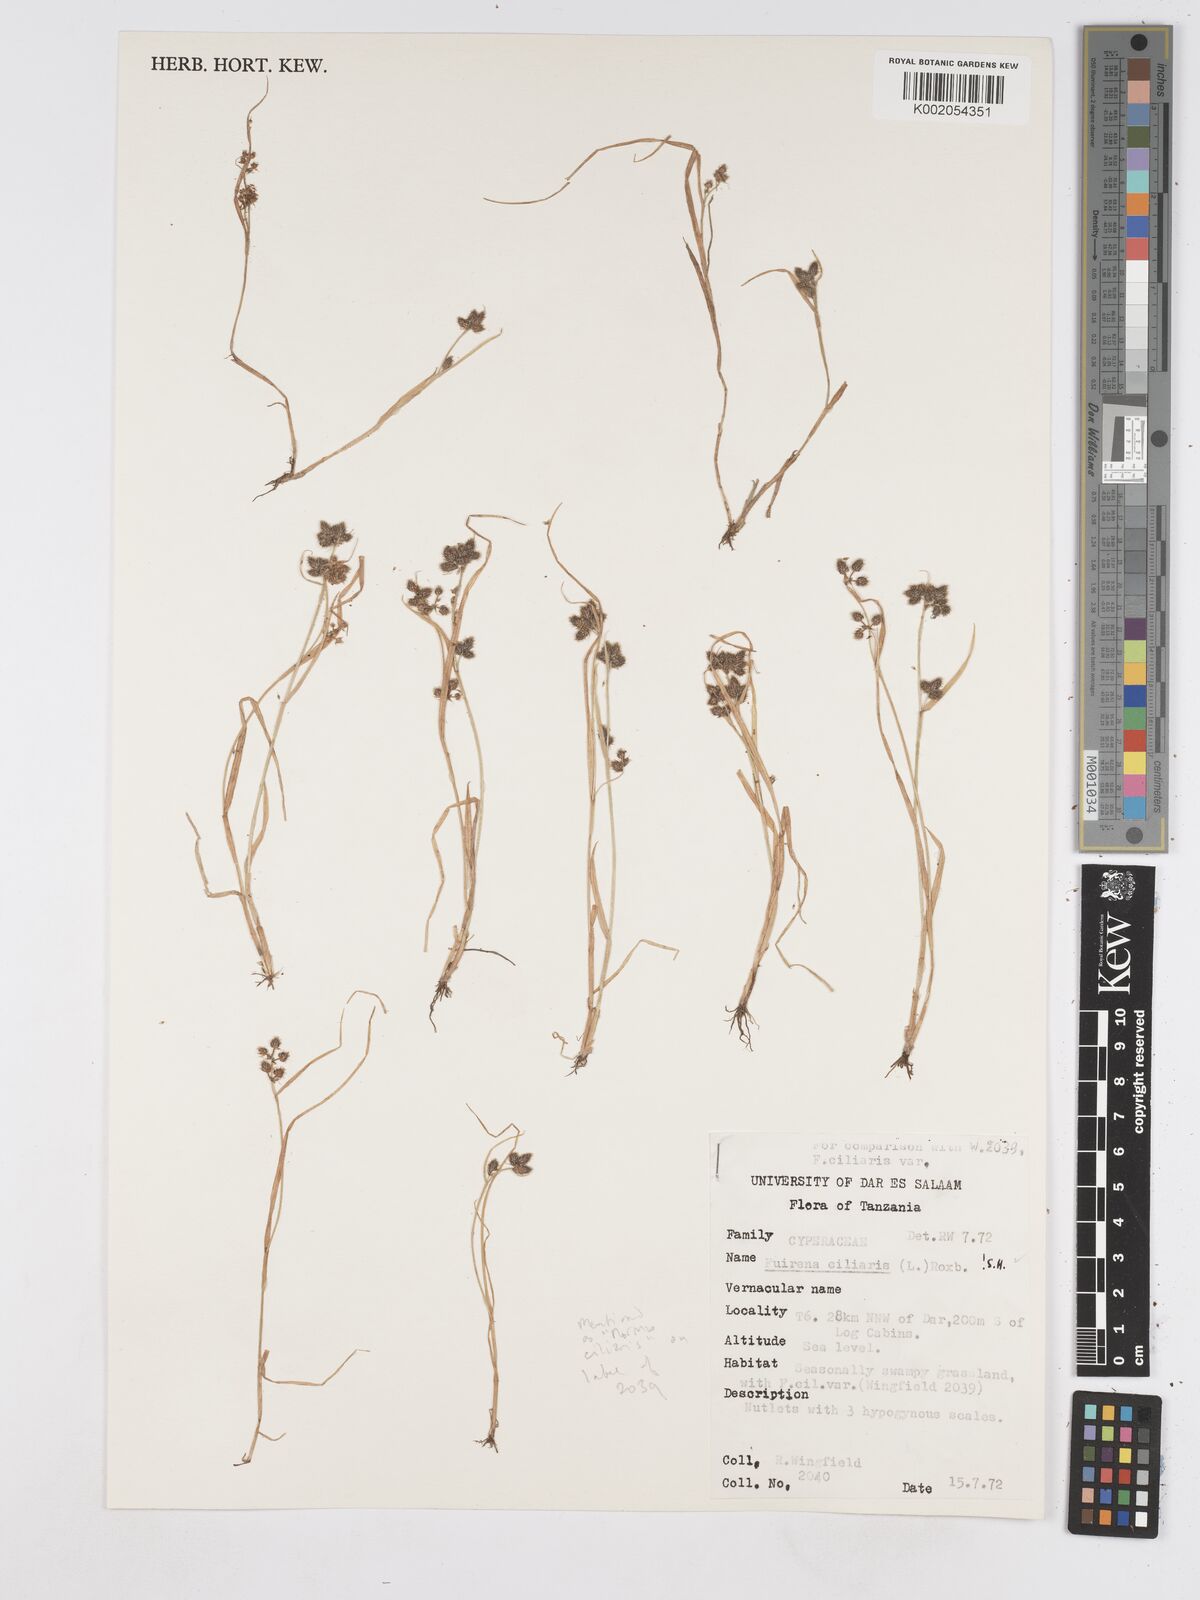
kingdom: Plantae
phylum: Tracheophyta
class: Liliopsida
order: Poales
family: Cyperaceae
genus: Fuirena
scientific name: Fuirena ciliaris
